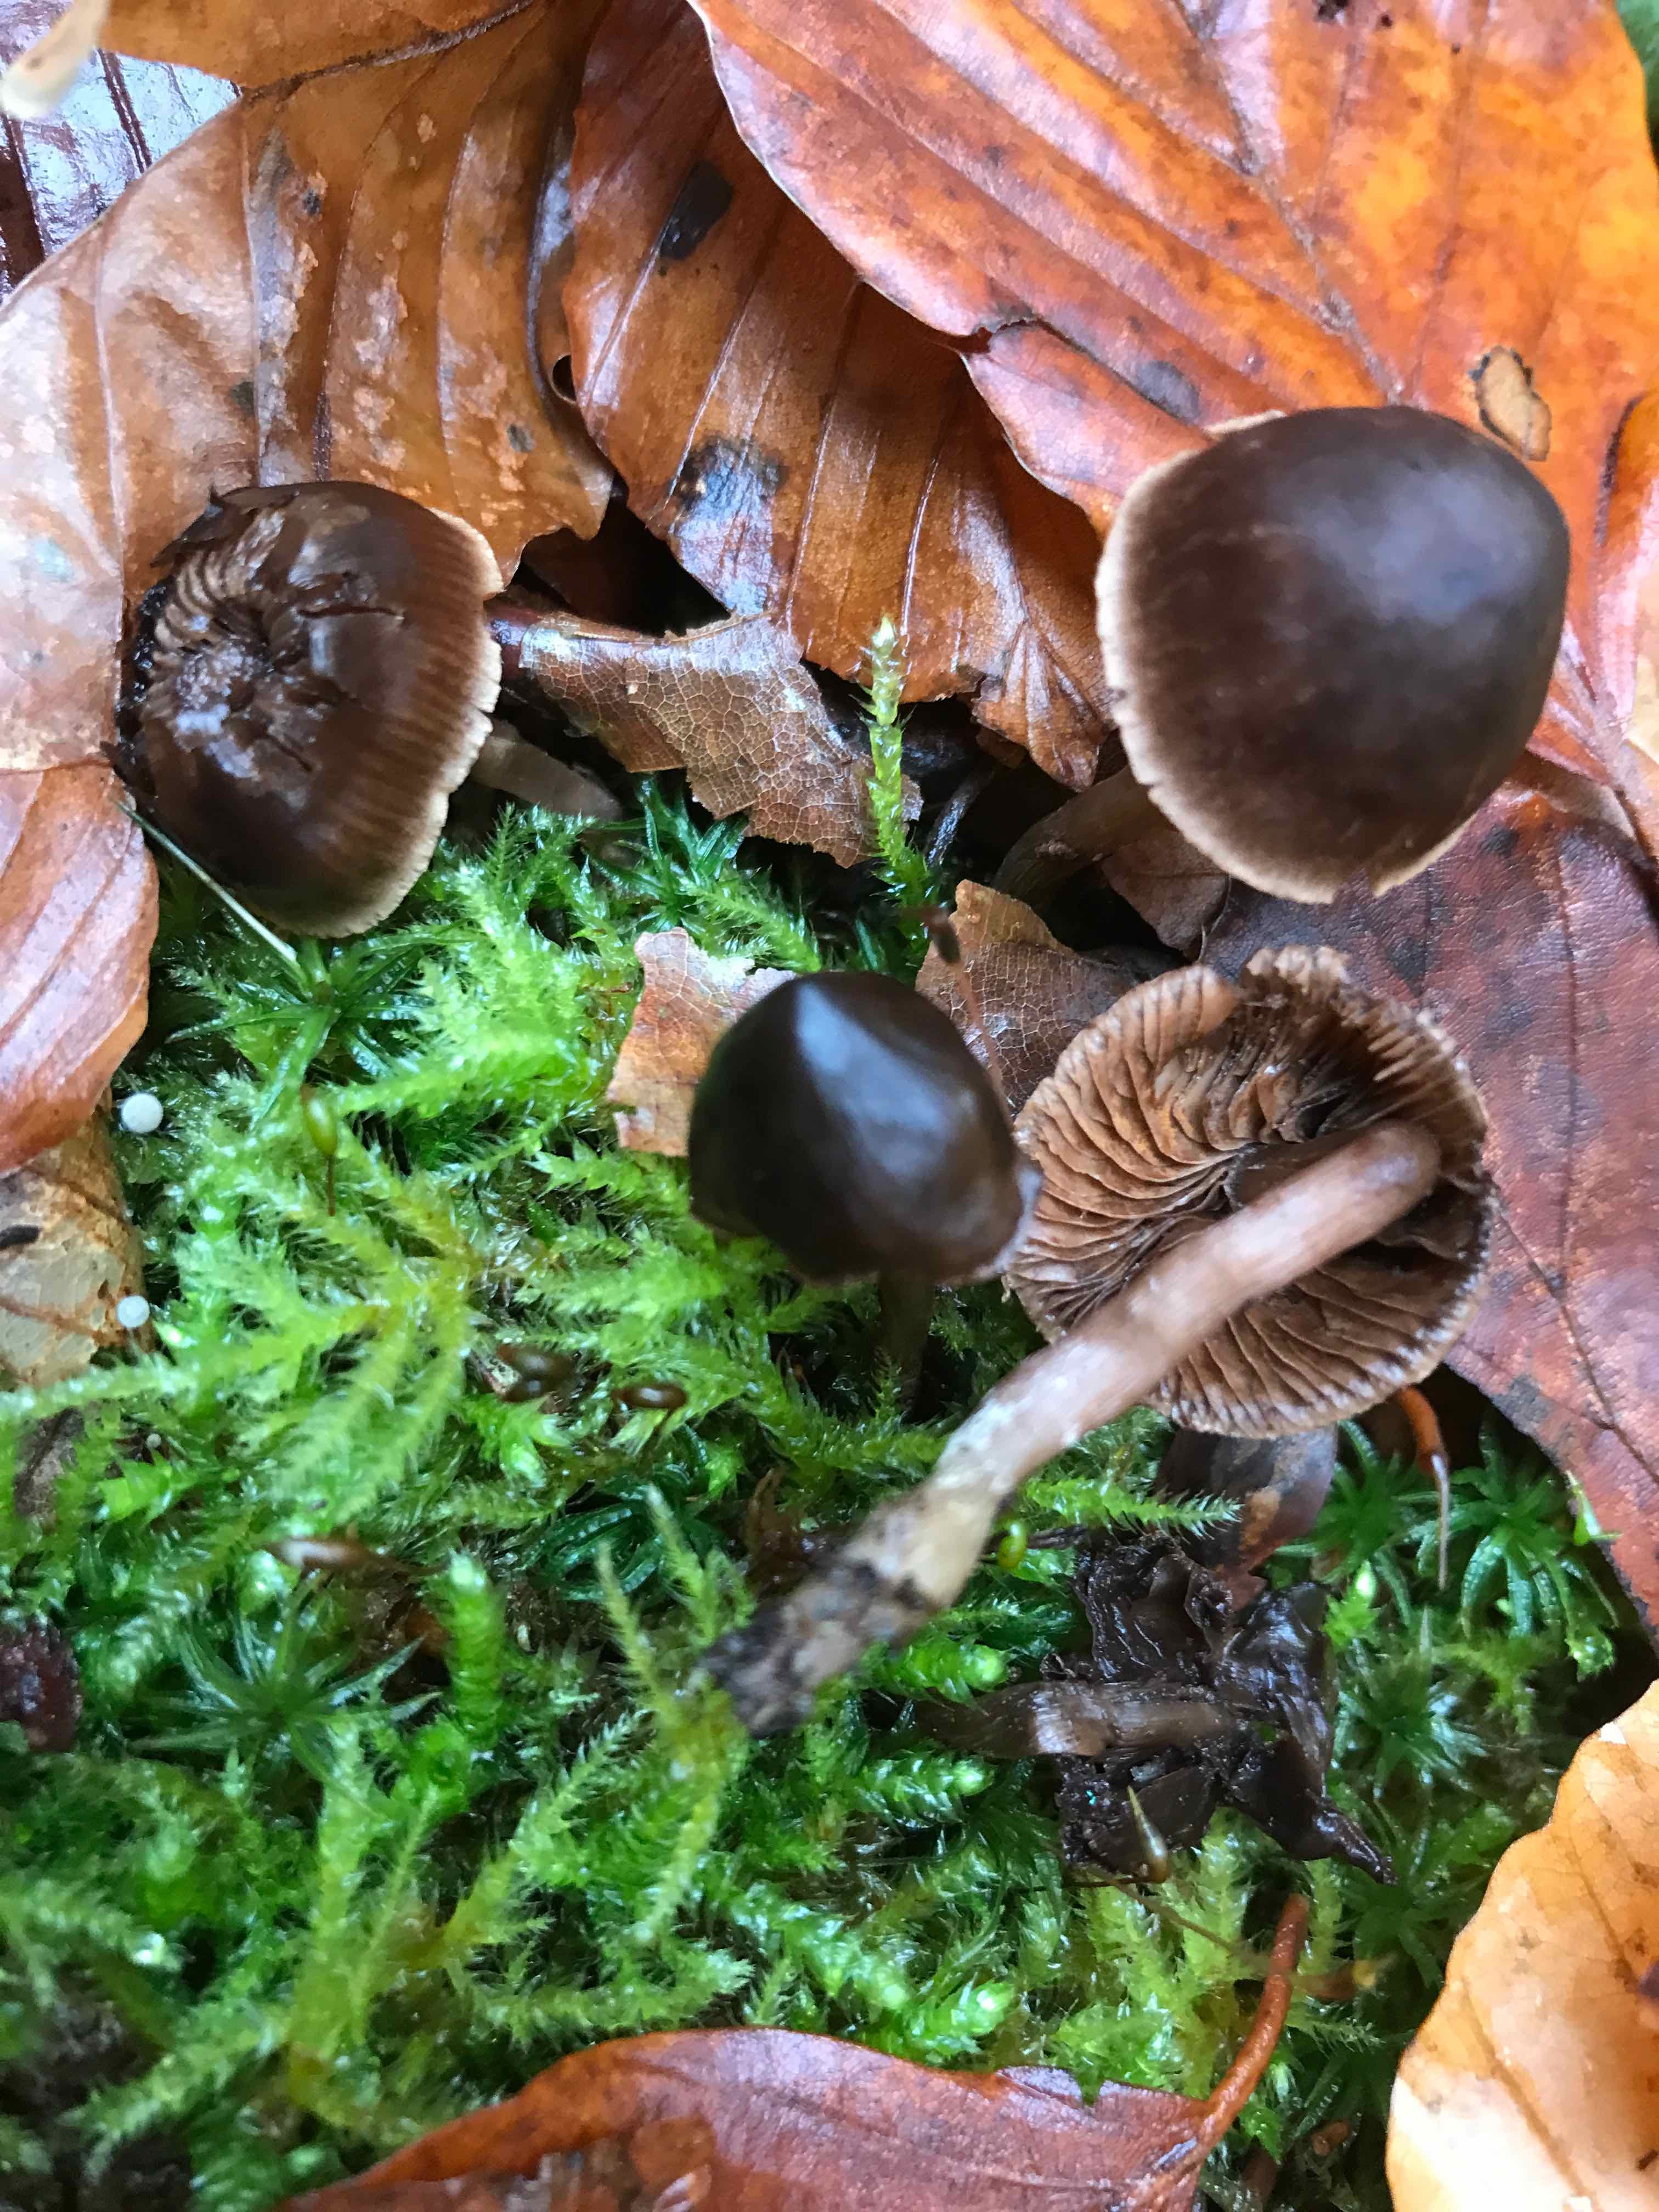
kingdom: Fungi
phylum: Basidiomycota
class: Agaricomycetes
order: Agaricales
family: Cortinariaceae
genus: Cortinarius
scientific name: Cortinarius
